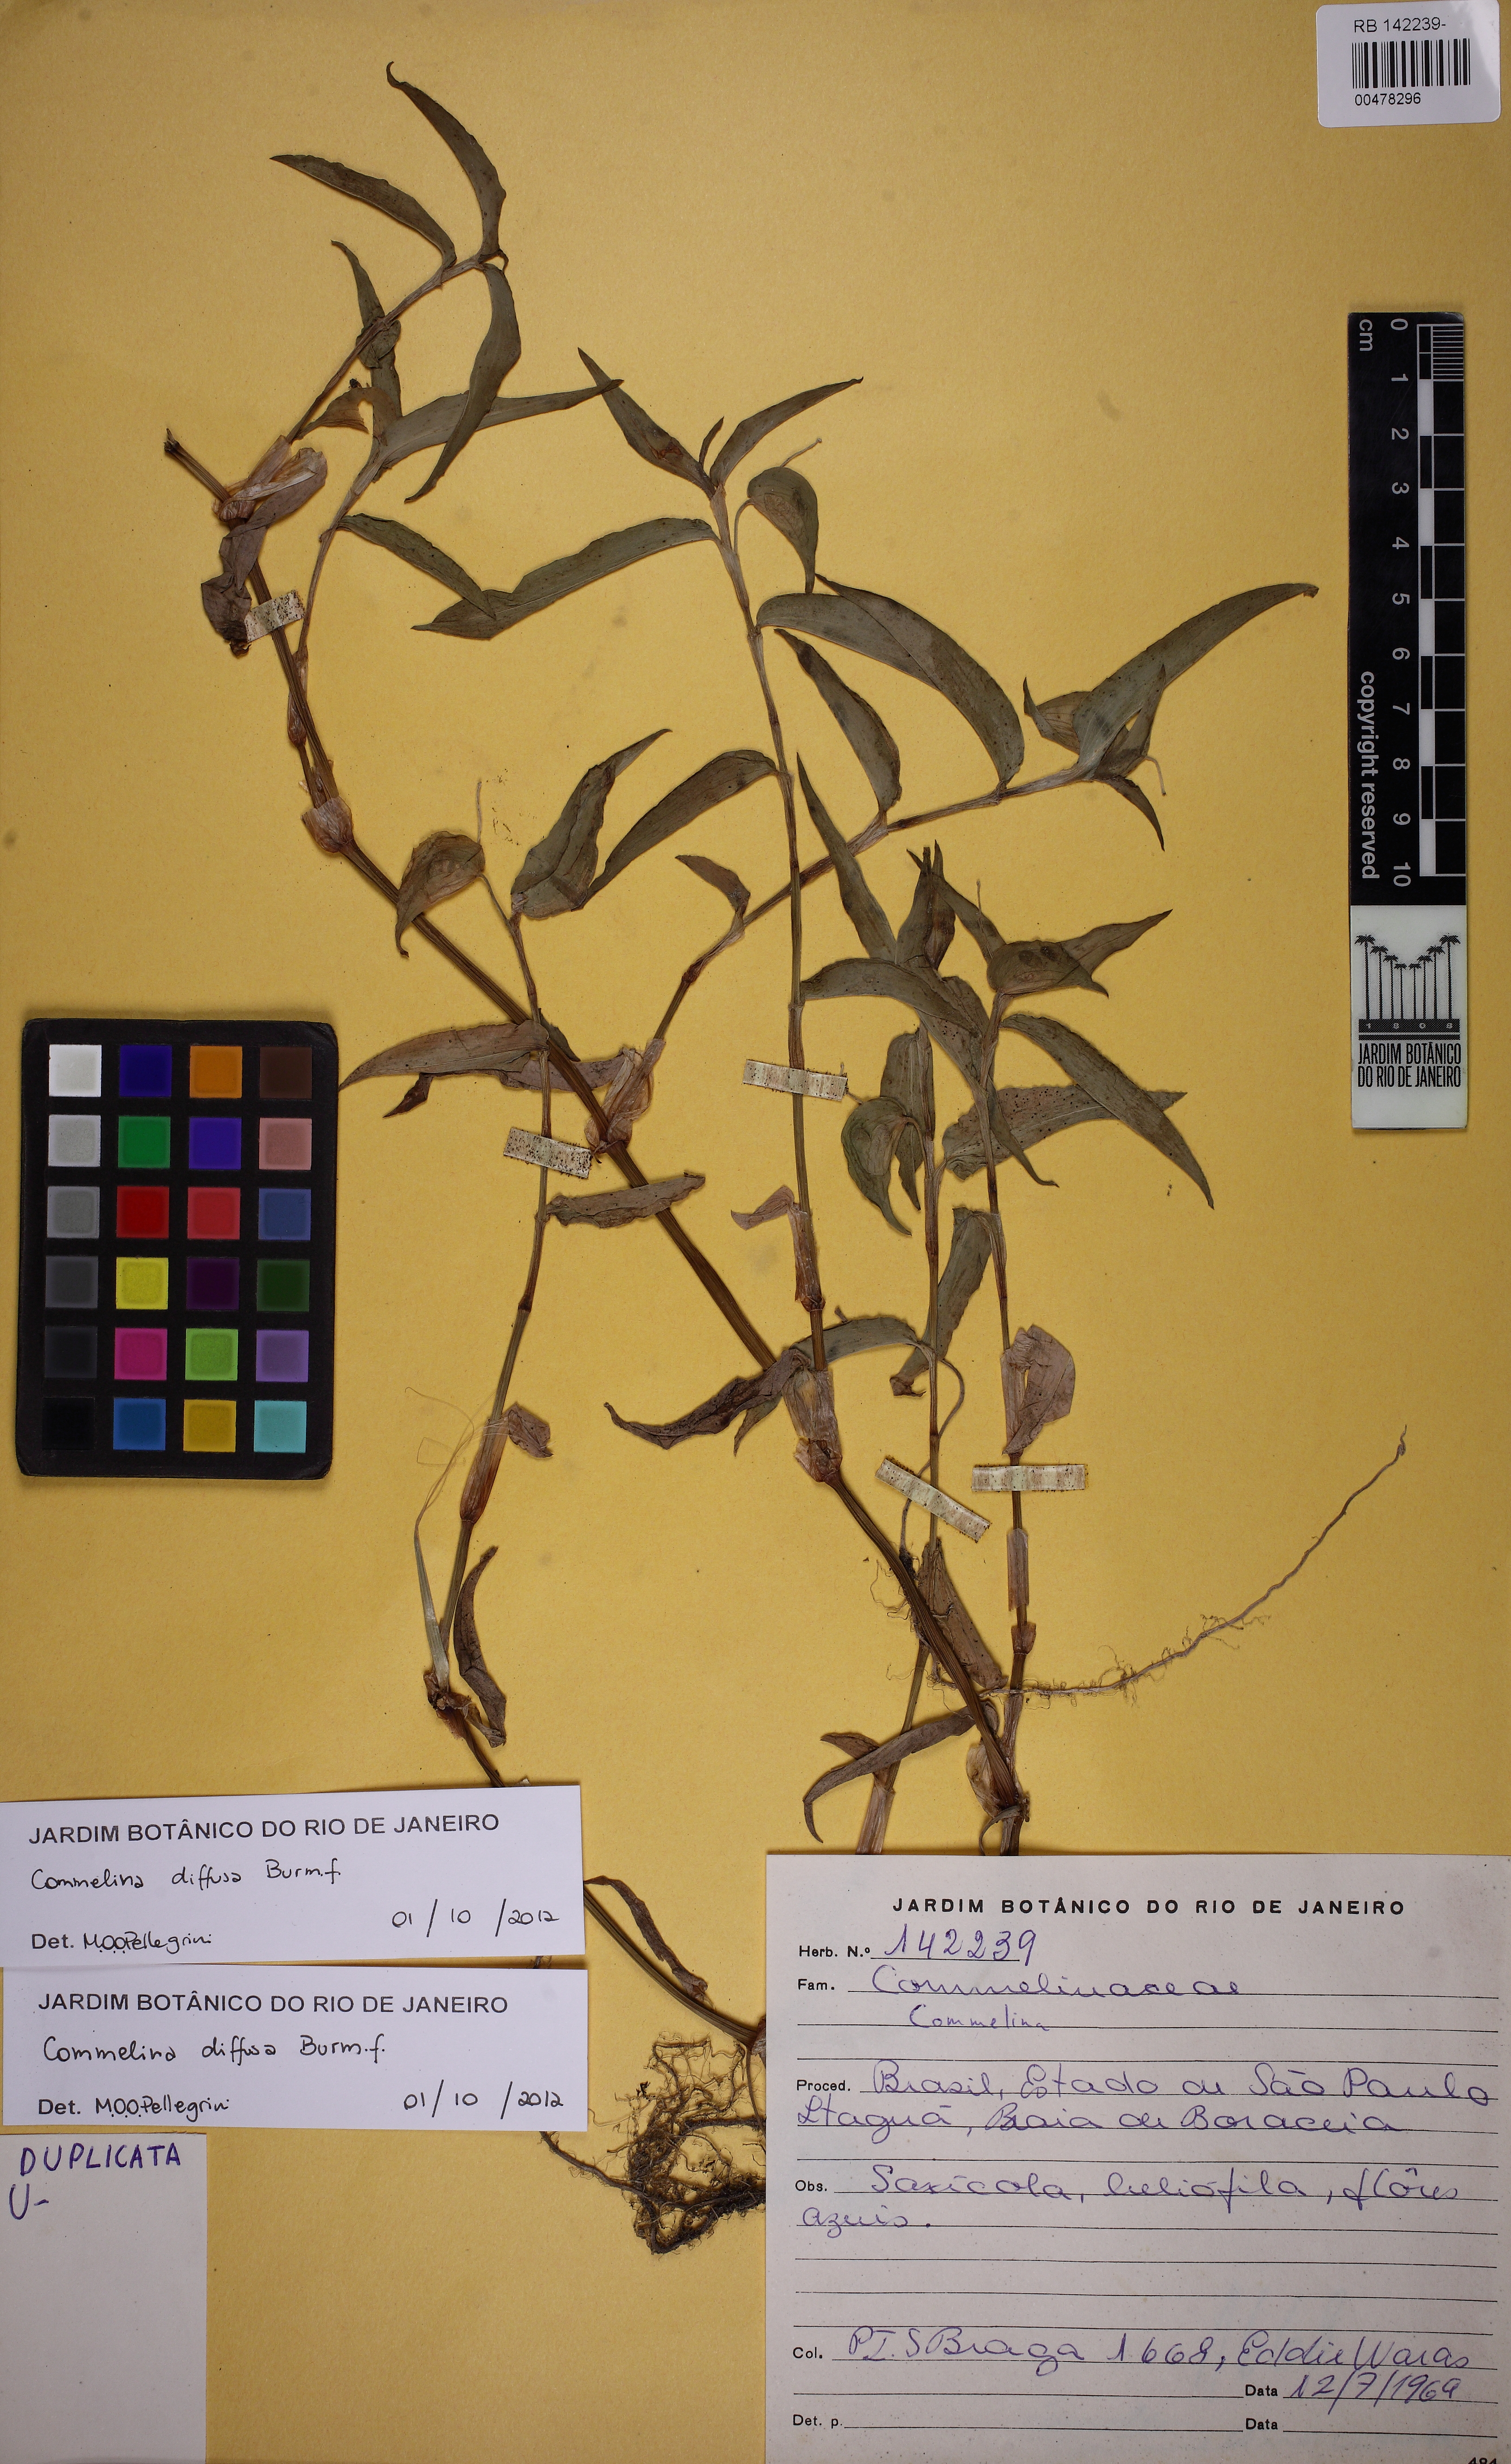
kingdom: Plantae
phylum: Tracheophyta
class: Liliopsida
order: Commelinales
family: Commelinaceae
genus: Commelina
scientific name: Commelina diffusa
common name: Climbing dayflower
